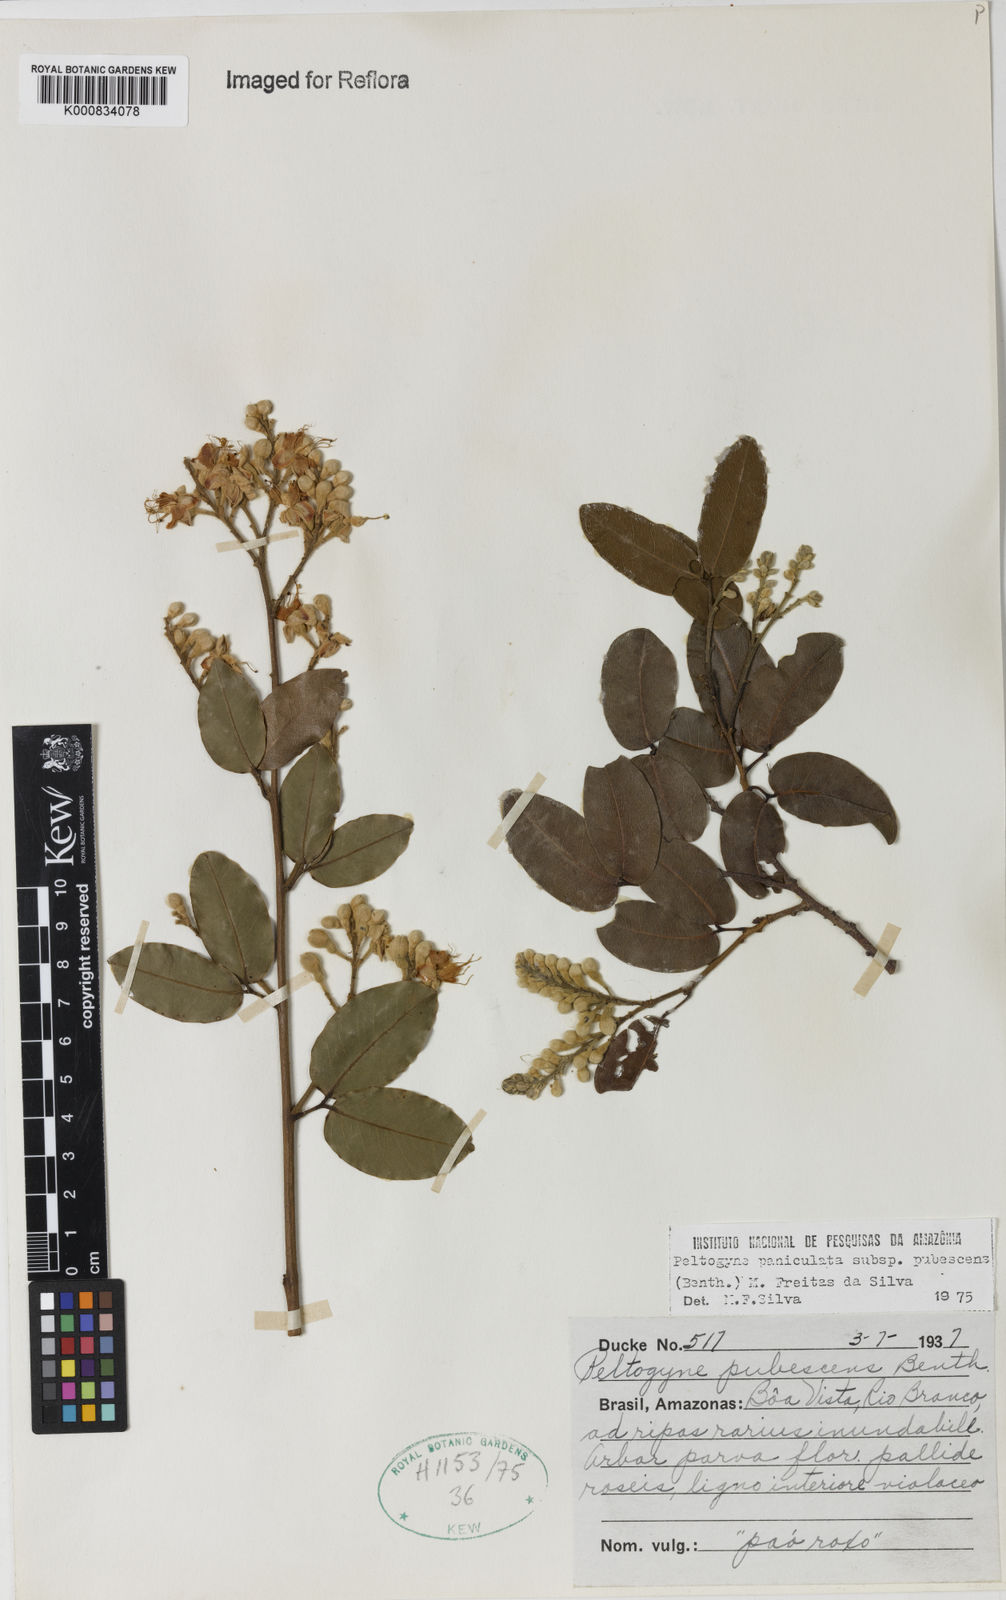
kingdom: Plantae
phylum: Tracheophyta
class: Magnoliopsida
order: Fabales
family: Fabaceae
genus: Peltogyne
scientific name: Peltogyne paniculata
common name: Purpleheart
